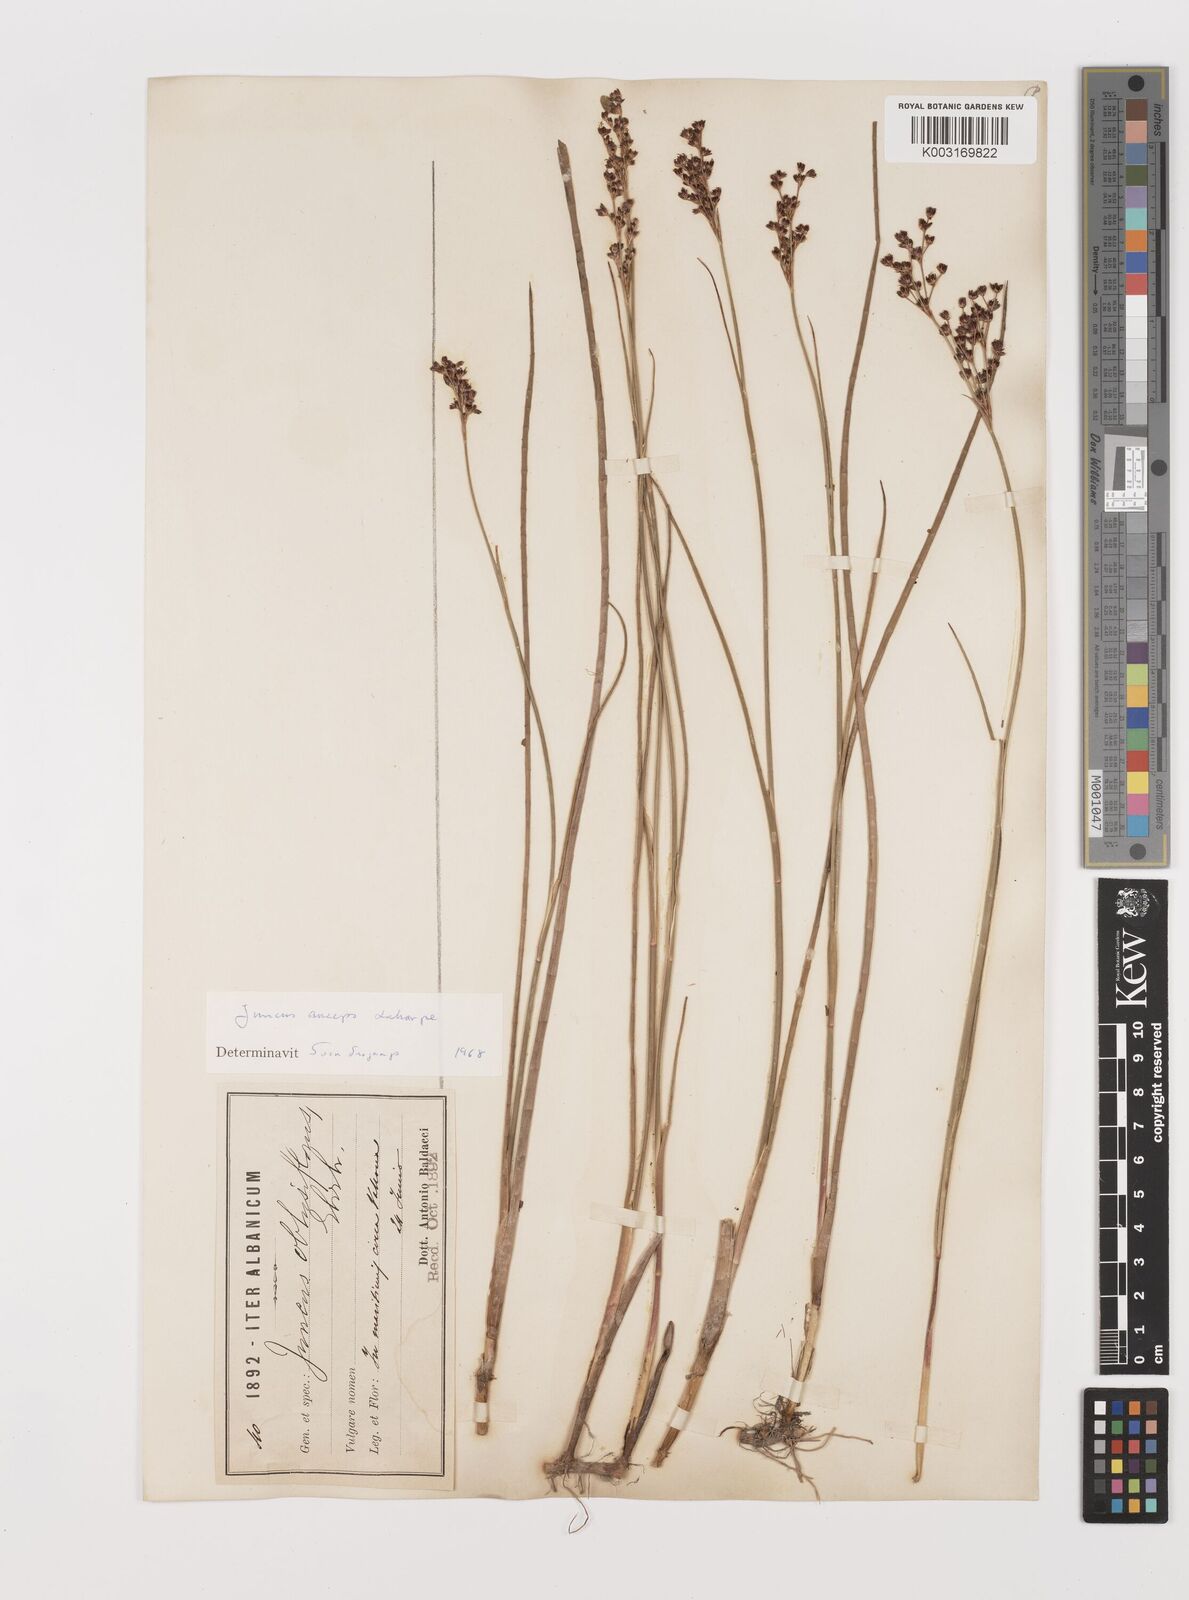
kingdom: Plantae
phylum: Tracheophyta
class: Liliopsida
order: Poales
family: Juncaceae
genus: Juncus
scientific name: Juncus anceps
